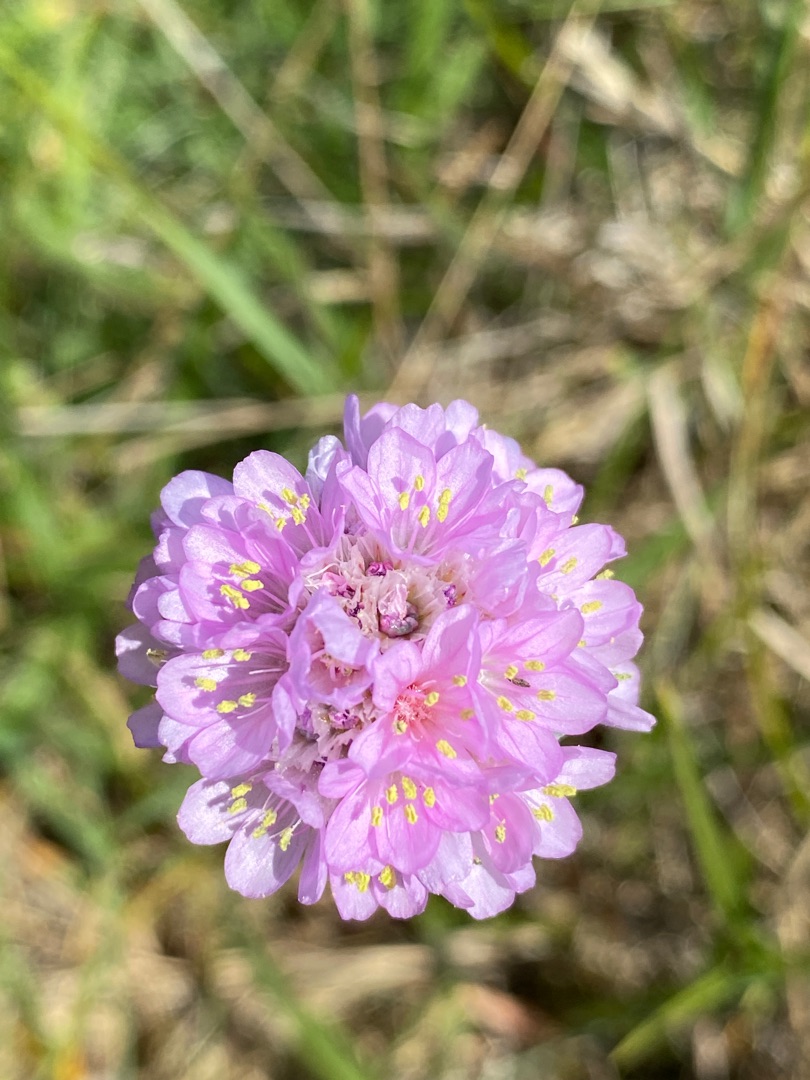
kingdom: Plantae
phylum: Tracheophyta
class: Magnoliopsida
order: Caryophyllales
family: Plumbaginaceae
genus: Armeria
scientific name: Armeria maritima
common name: Engelskgræs
